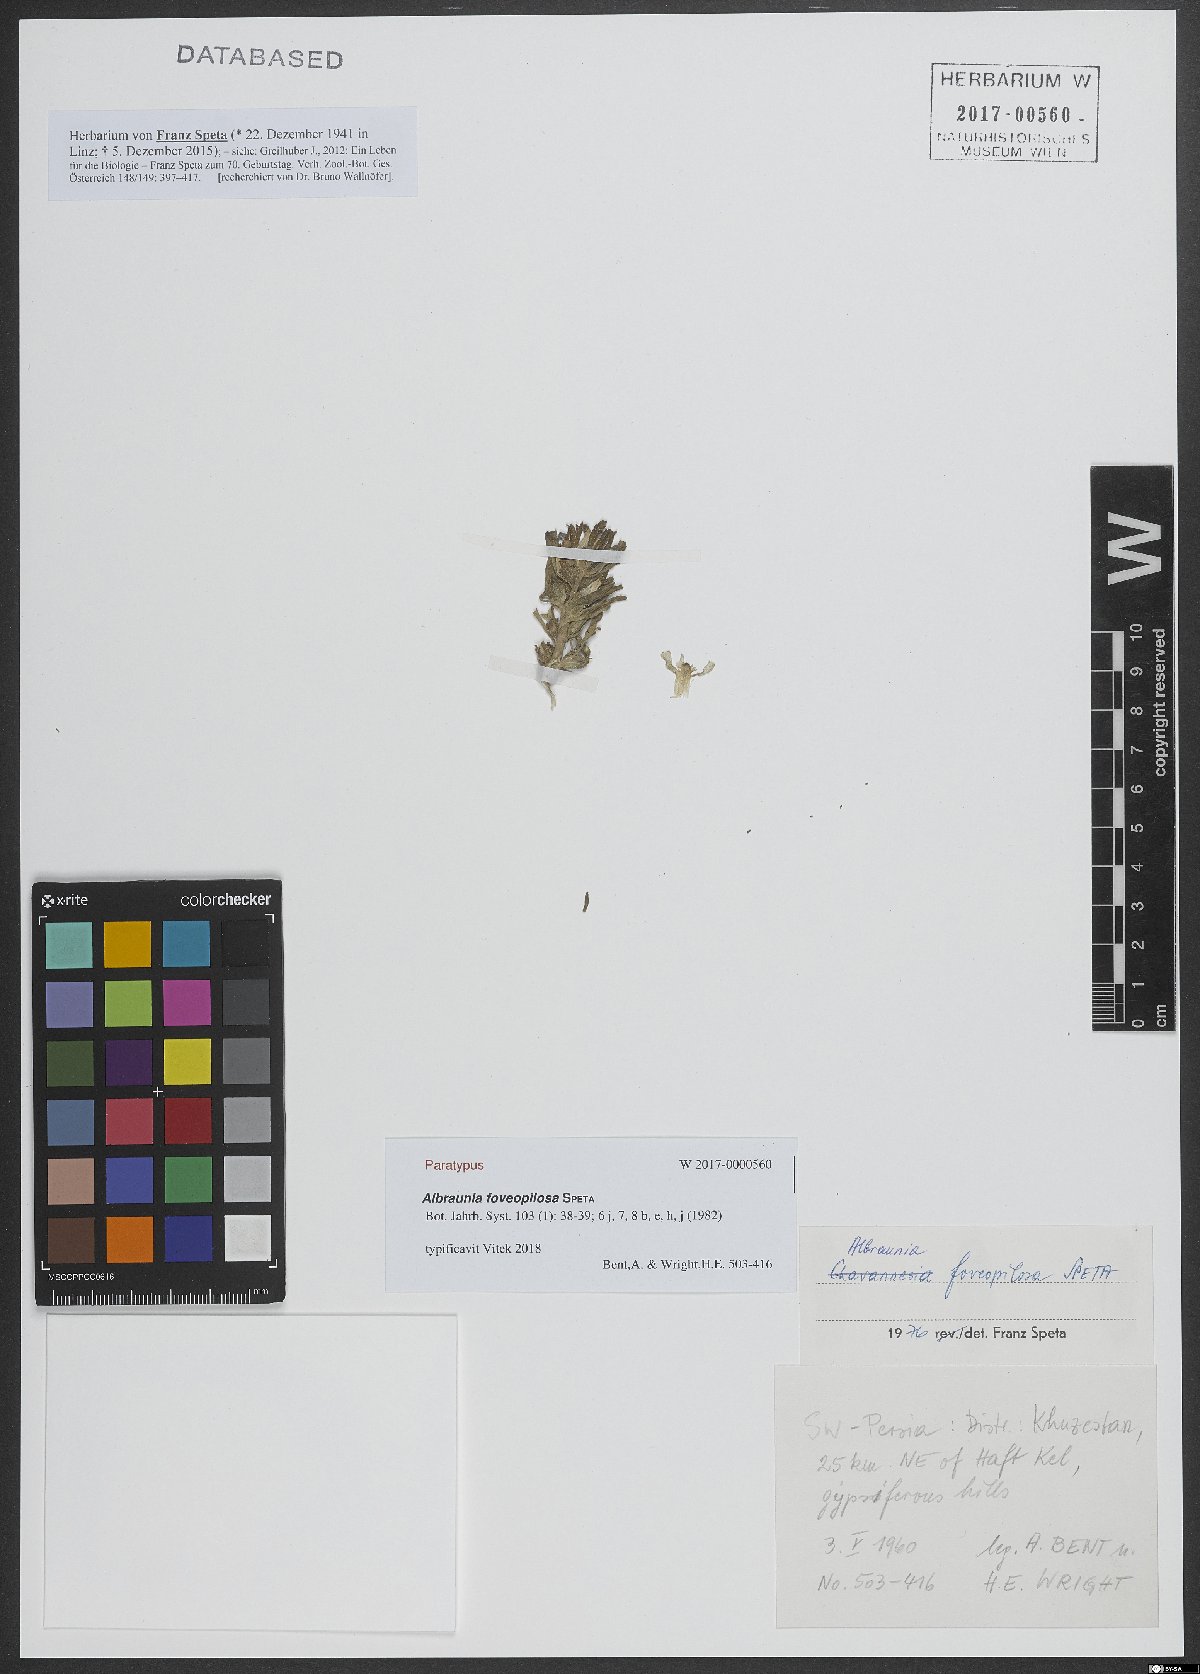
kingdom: Plantae
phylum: Tracheophyta
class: Magnoliopsida
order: Lamiales
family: Plantaginaceae
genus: Albraunia
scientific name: Albraunia foveopilosa
